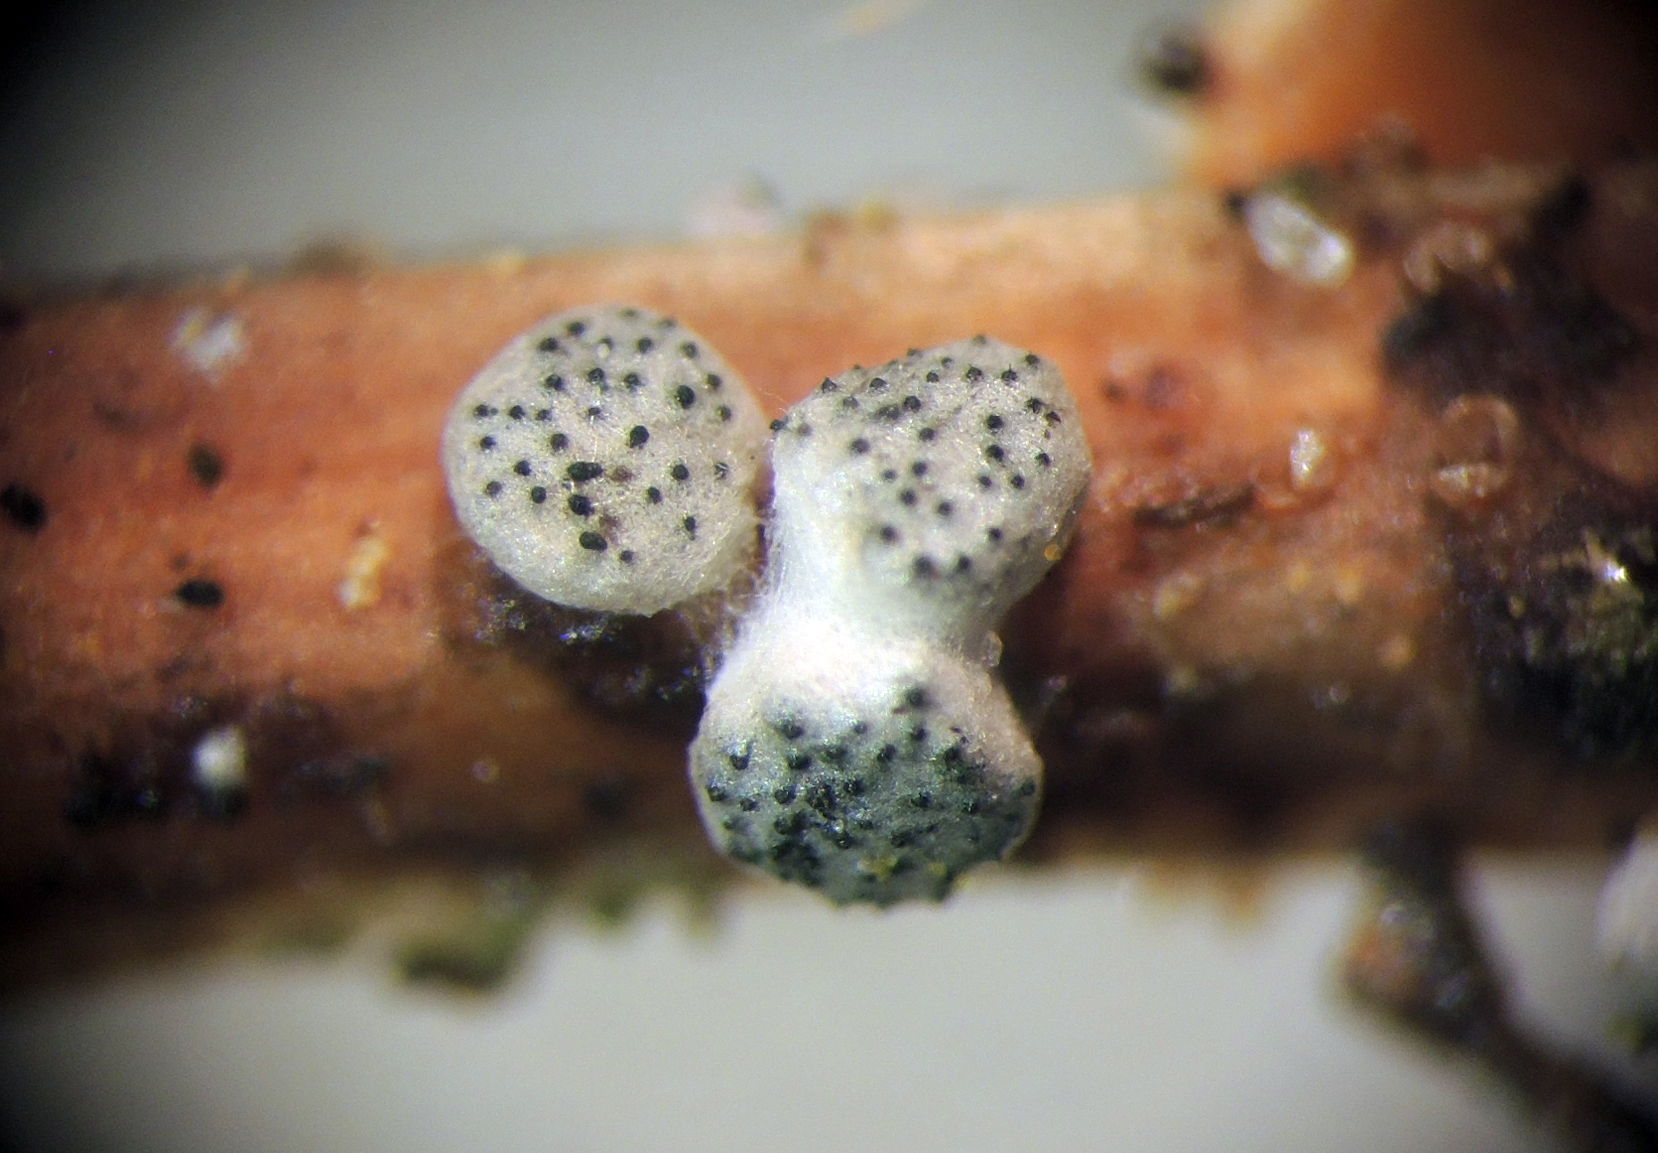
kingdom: Fungi
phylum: Ascomycota
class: Sordariomycetes
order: Hypocreales
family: Hypocreaceae
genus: Trichoderma
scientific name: Trichoderma spinulosum
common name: grågrøn kødkerne
